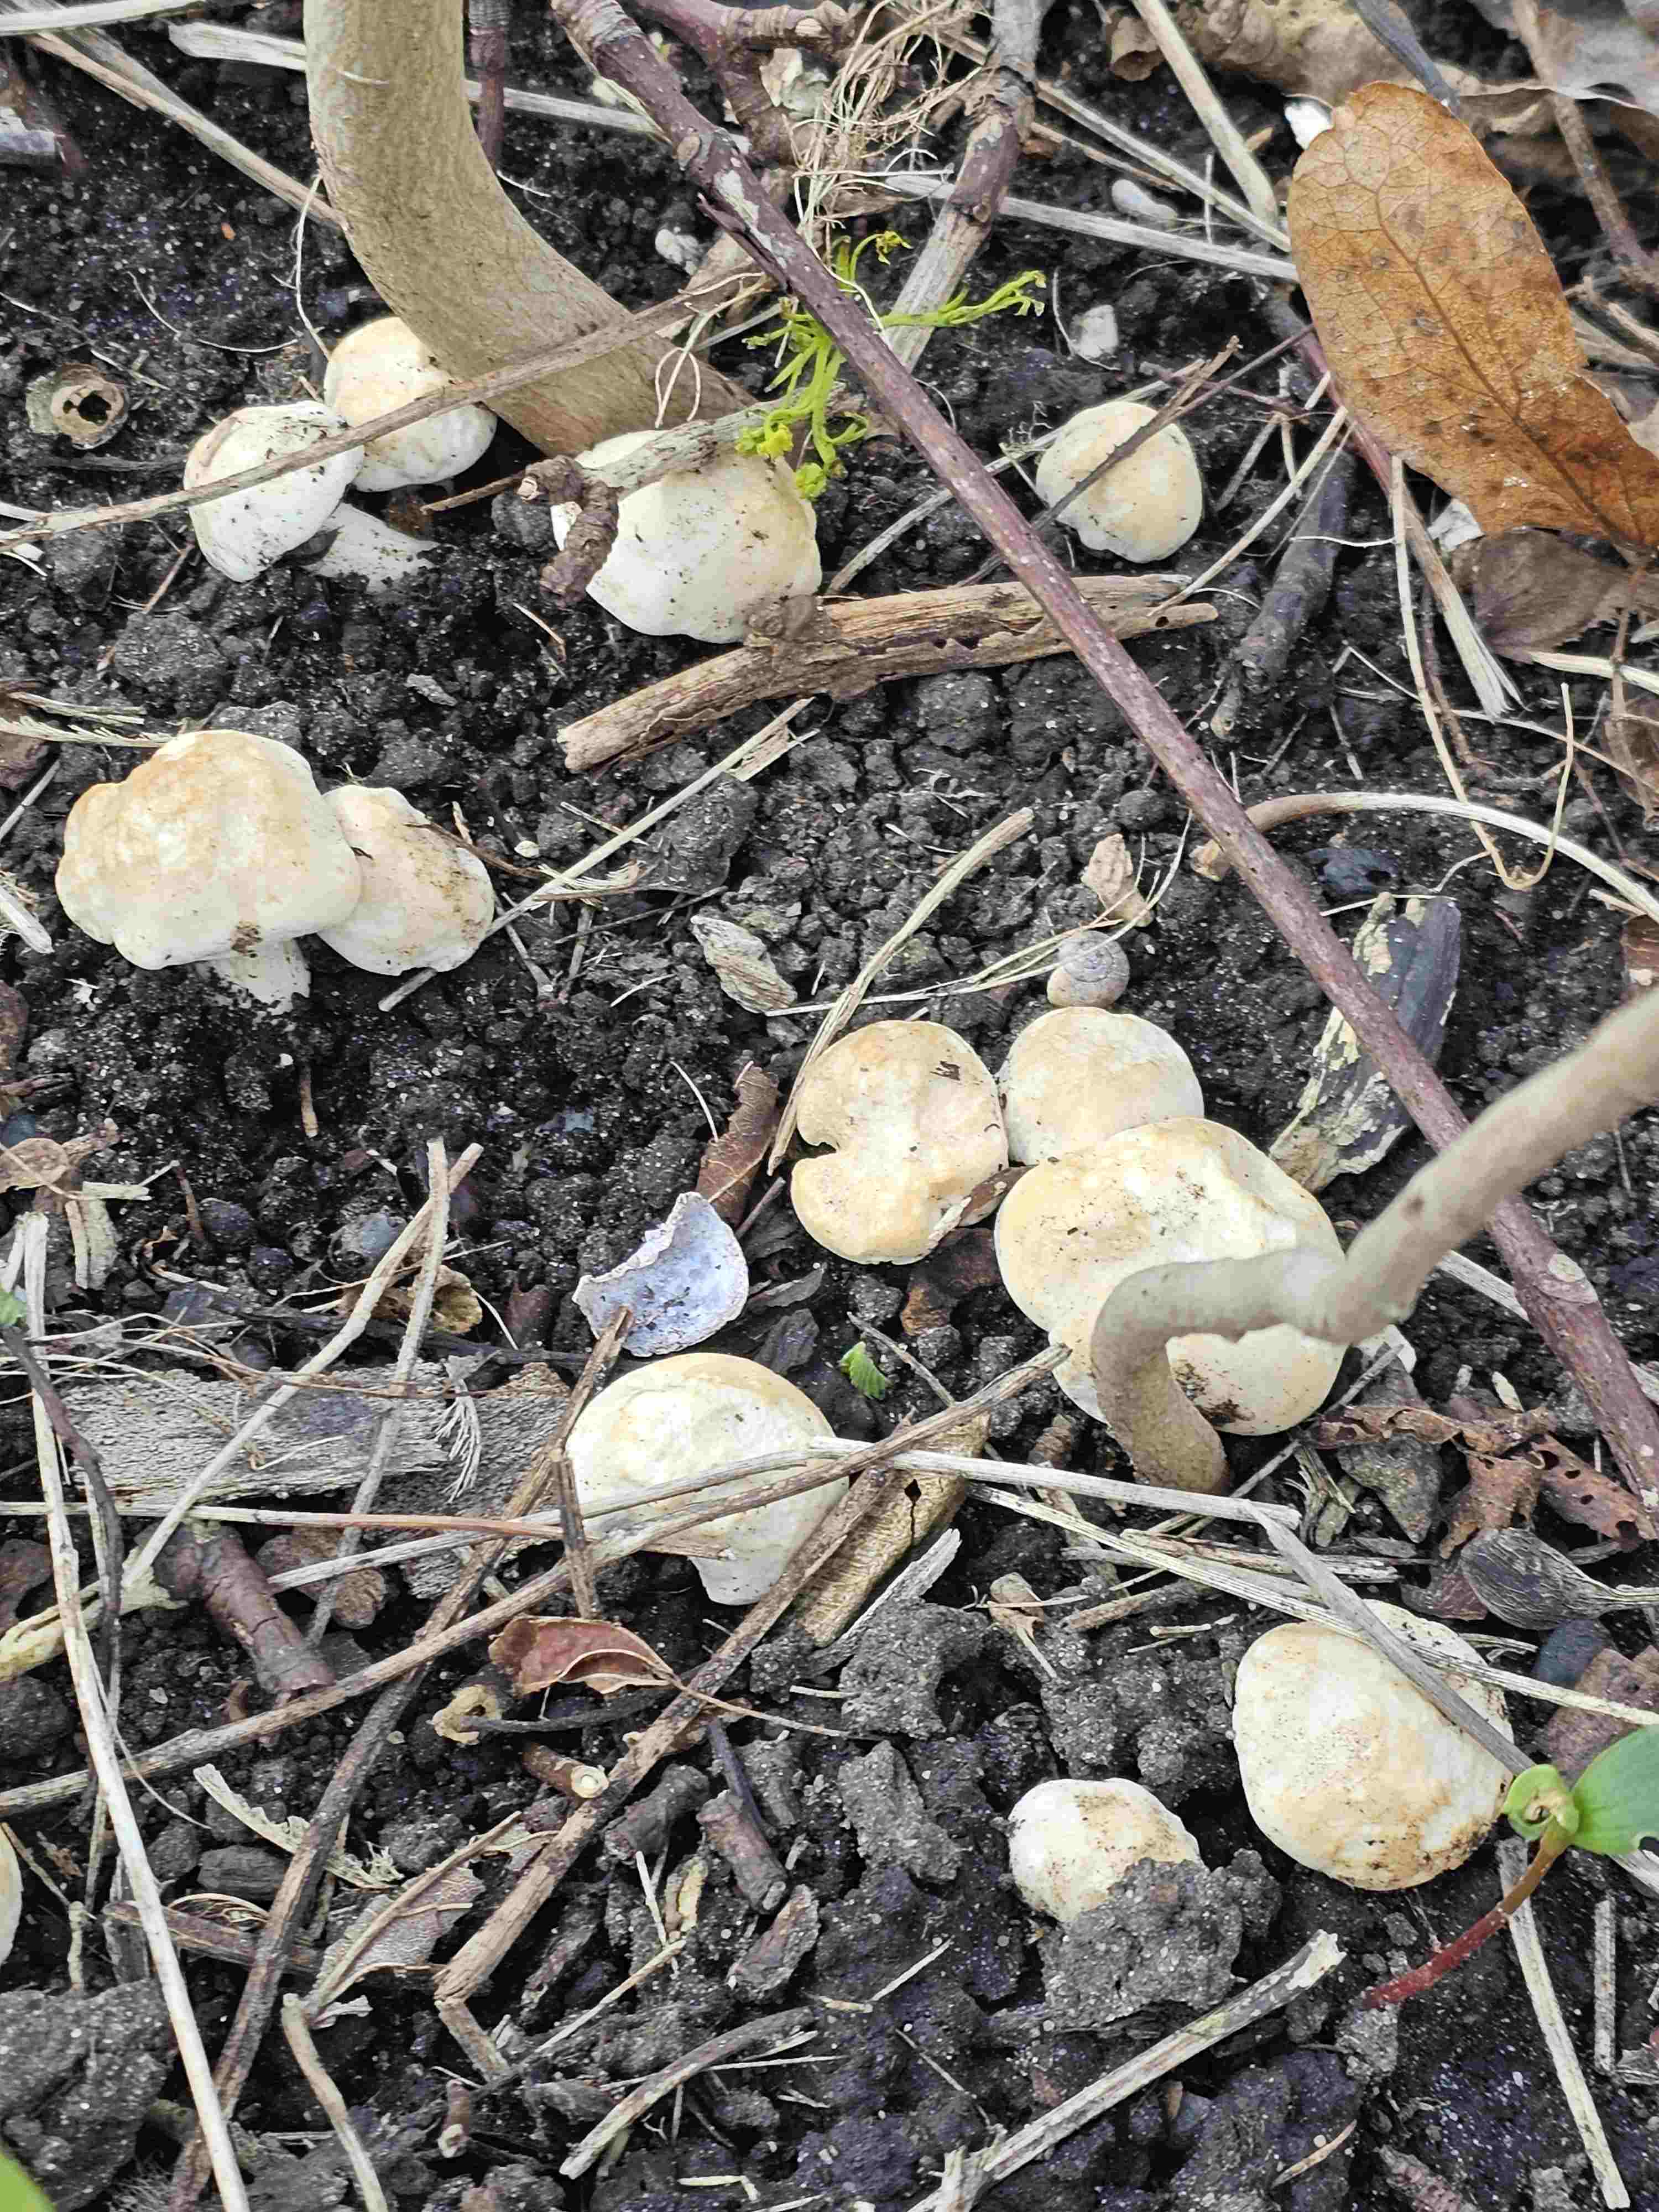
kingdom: Fungi
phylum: Basidiomycota
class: Agaricomycetes
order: Agaricales
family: Lyophyllaceae
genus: Calocybe
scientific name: Calocybe gambosa
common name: vårmusseron
